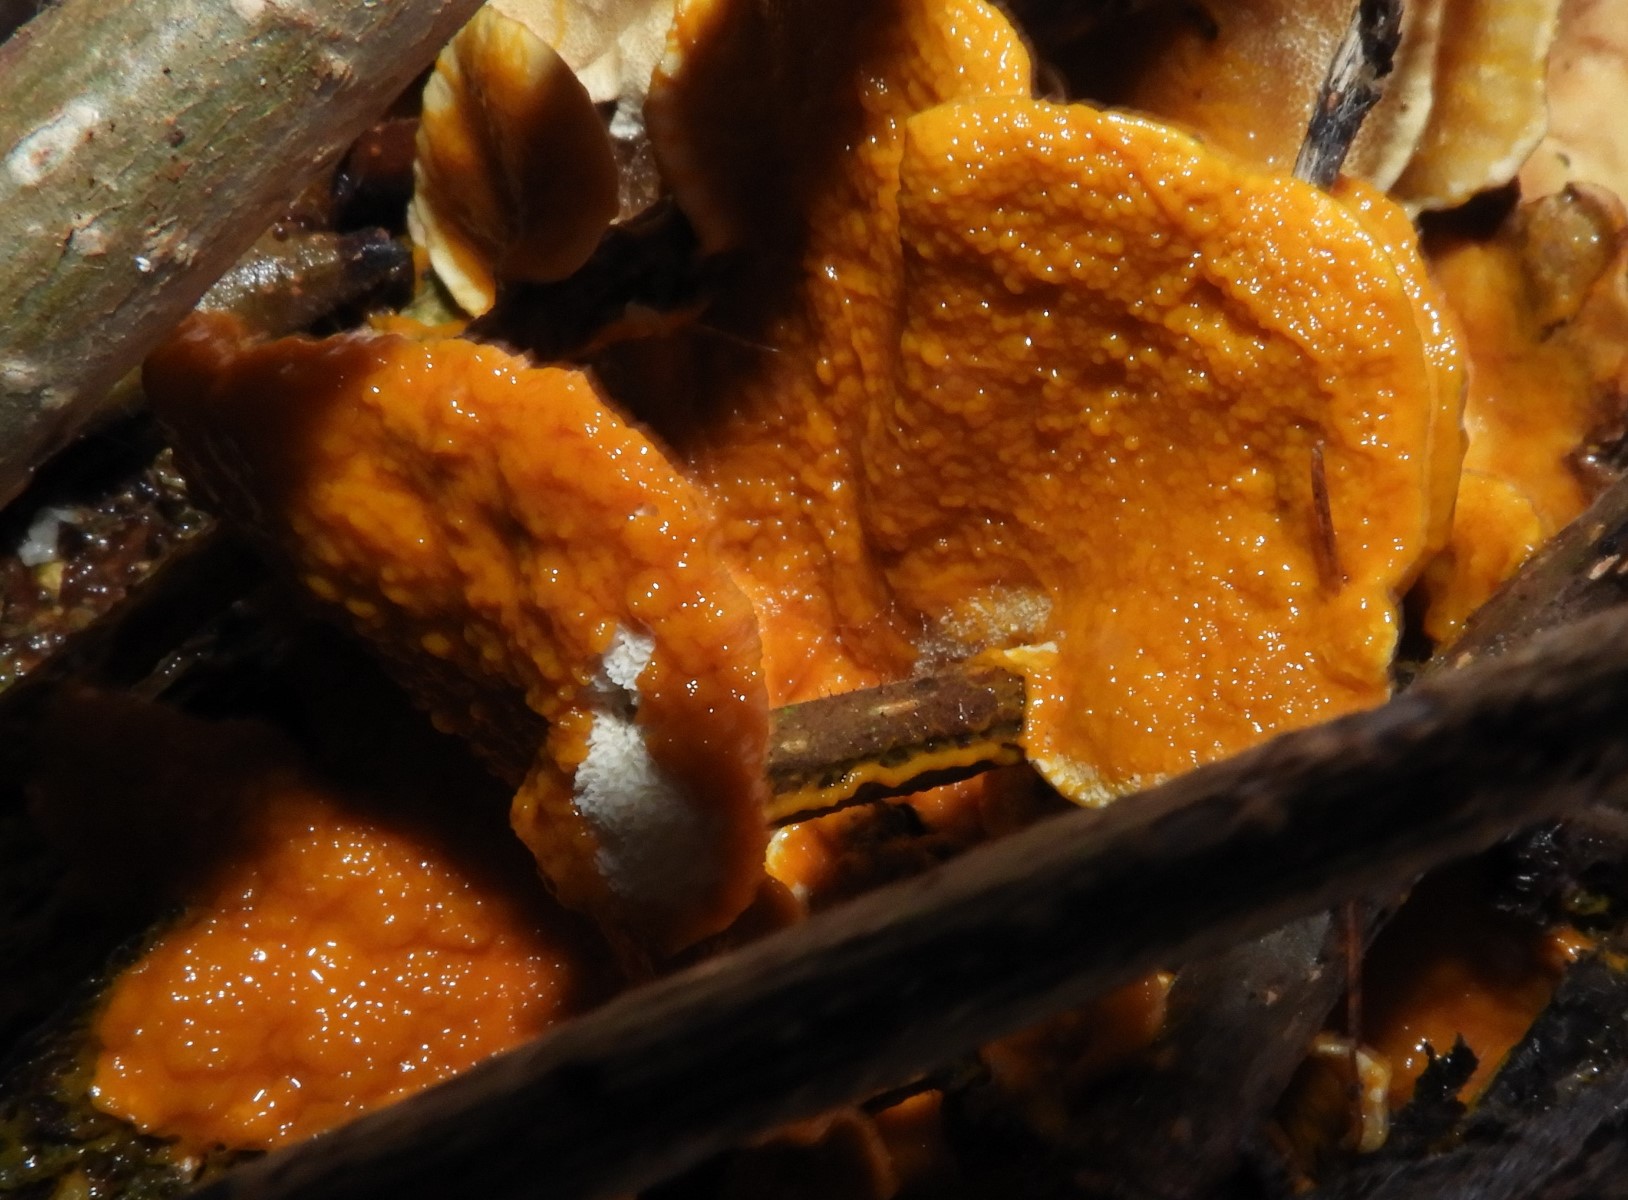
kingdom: Protozoa
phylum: Mycetozoa
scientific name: Mycetozoa
